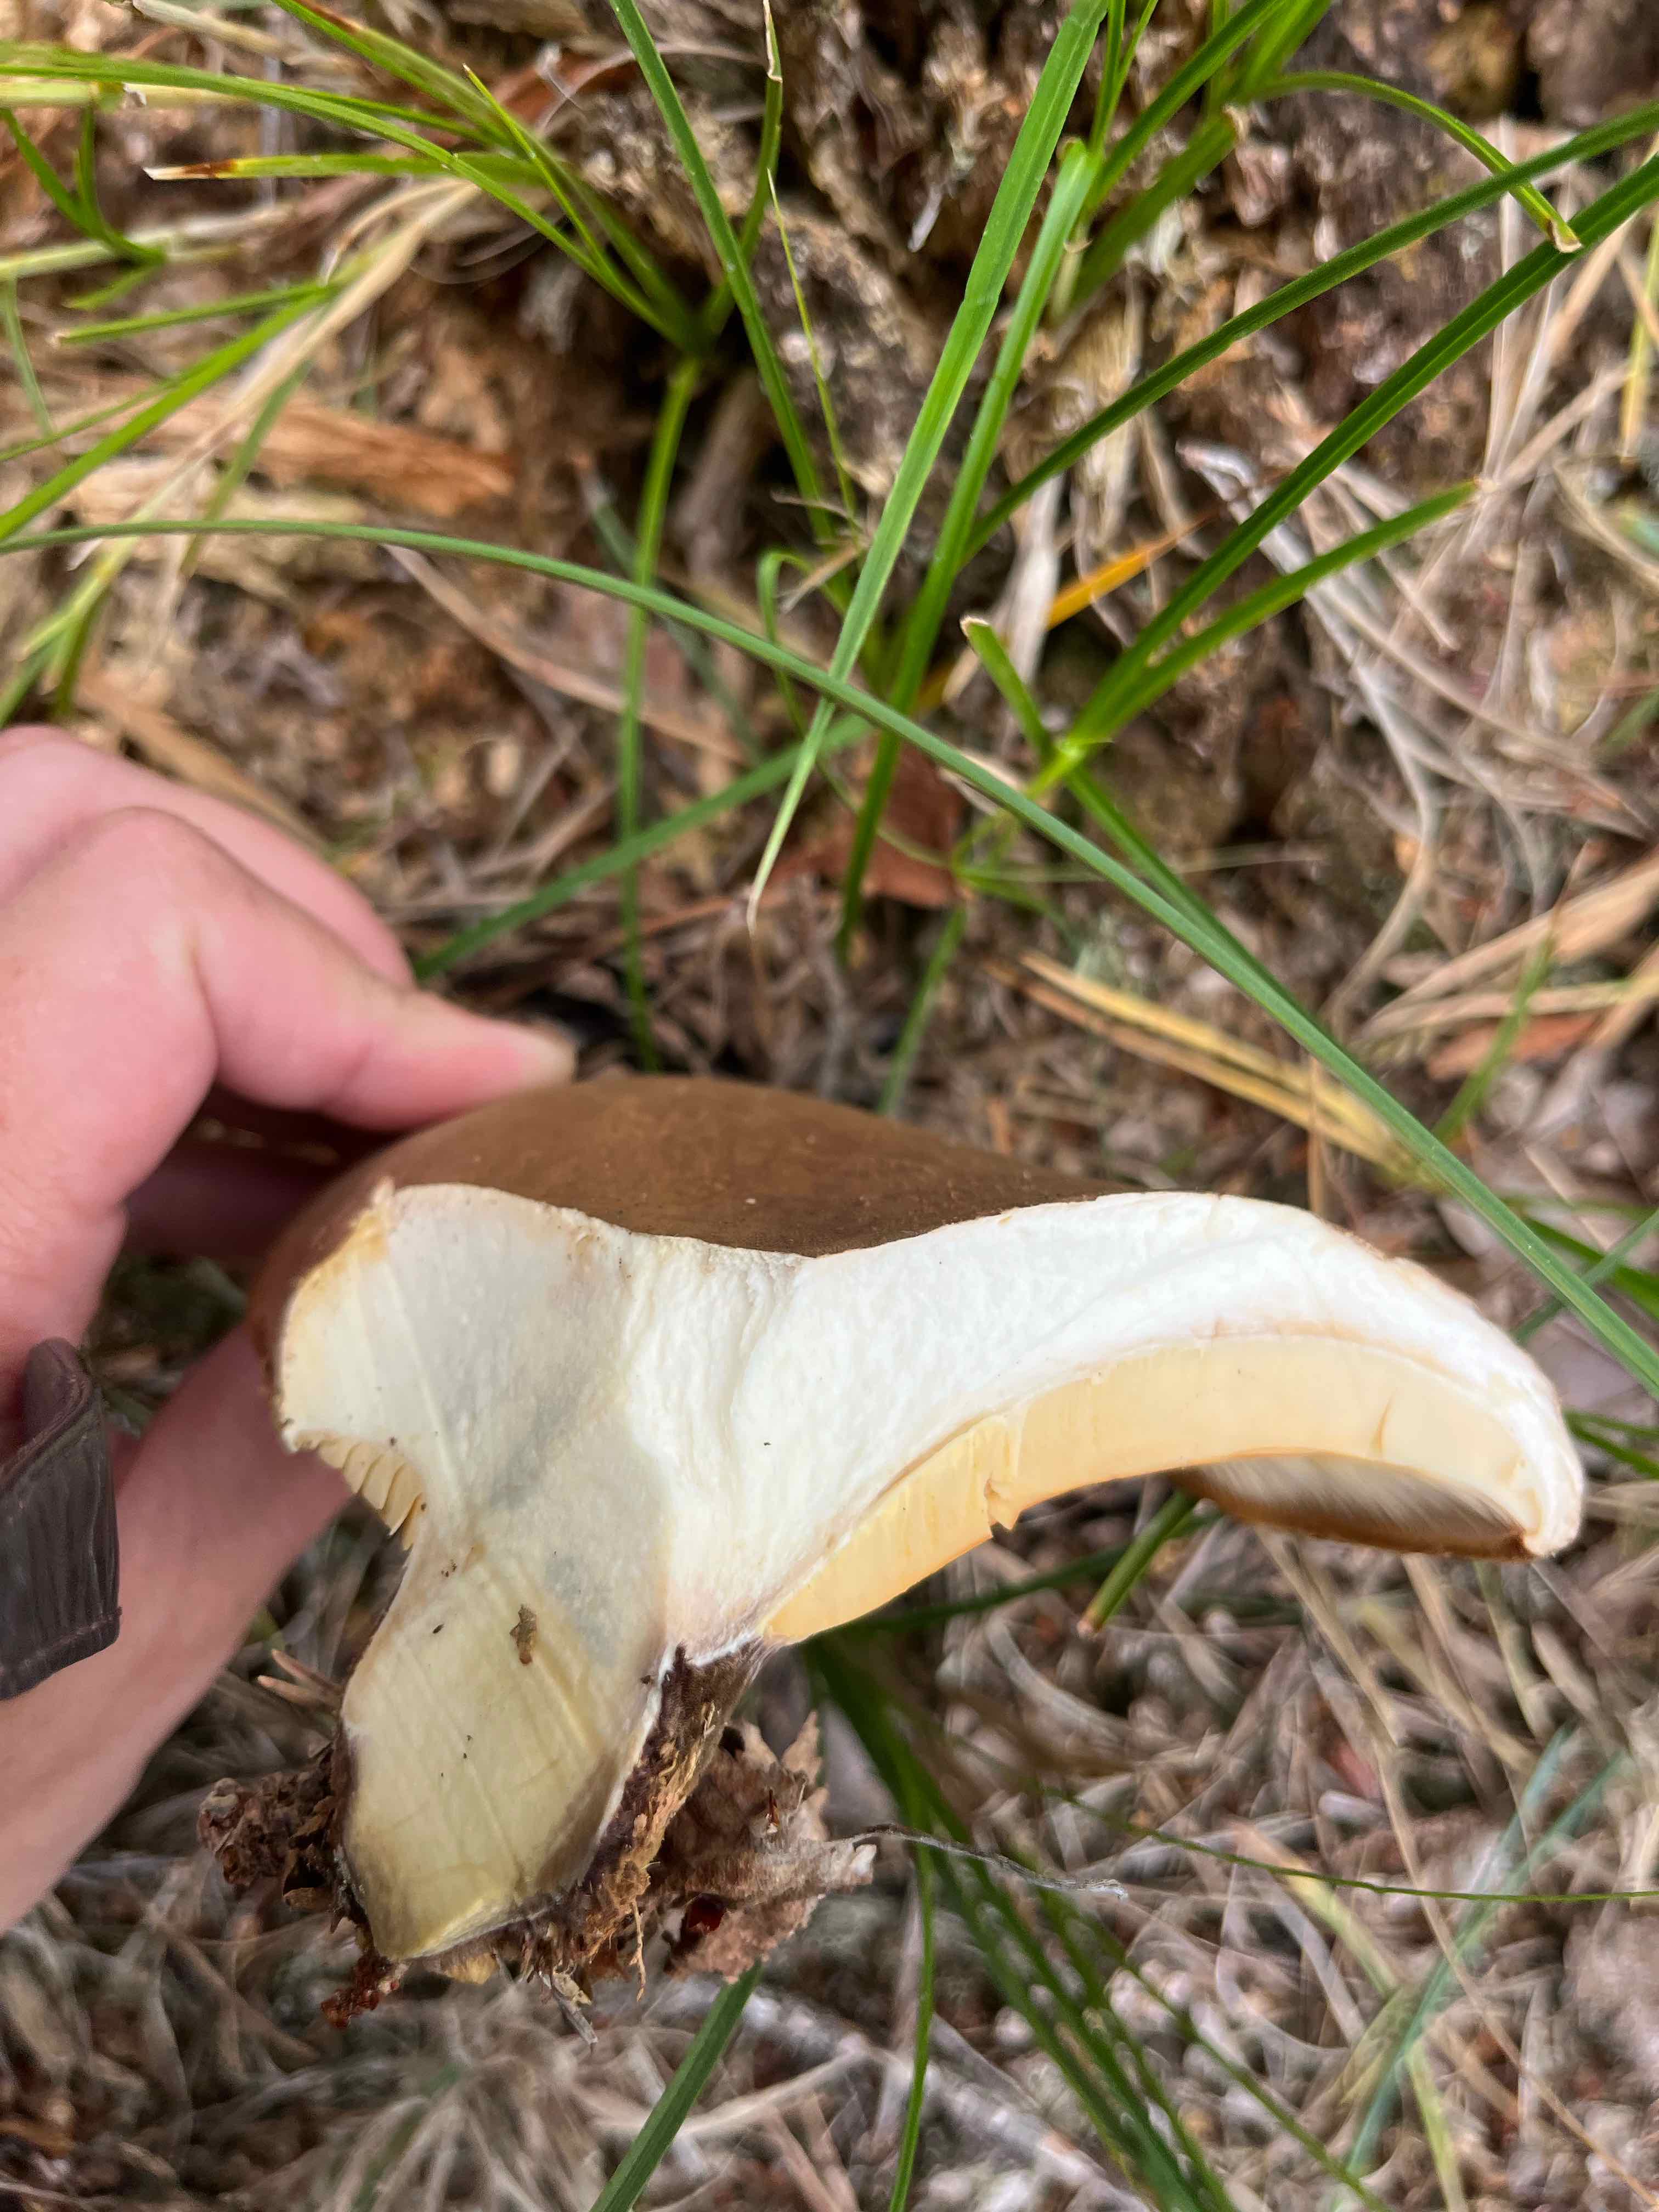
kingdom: Fungi
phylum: Basidiomycota
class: Agaricomycetes
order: Boletales
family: Tapinellaceae
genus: Tapinella
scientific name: Tapinella atrotomentosa
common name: sortfiltet viftesvamp
